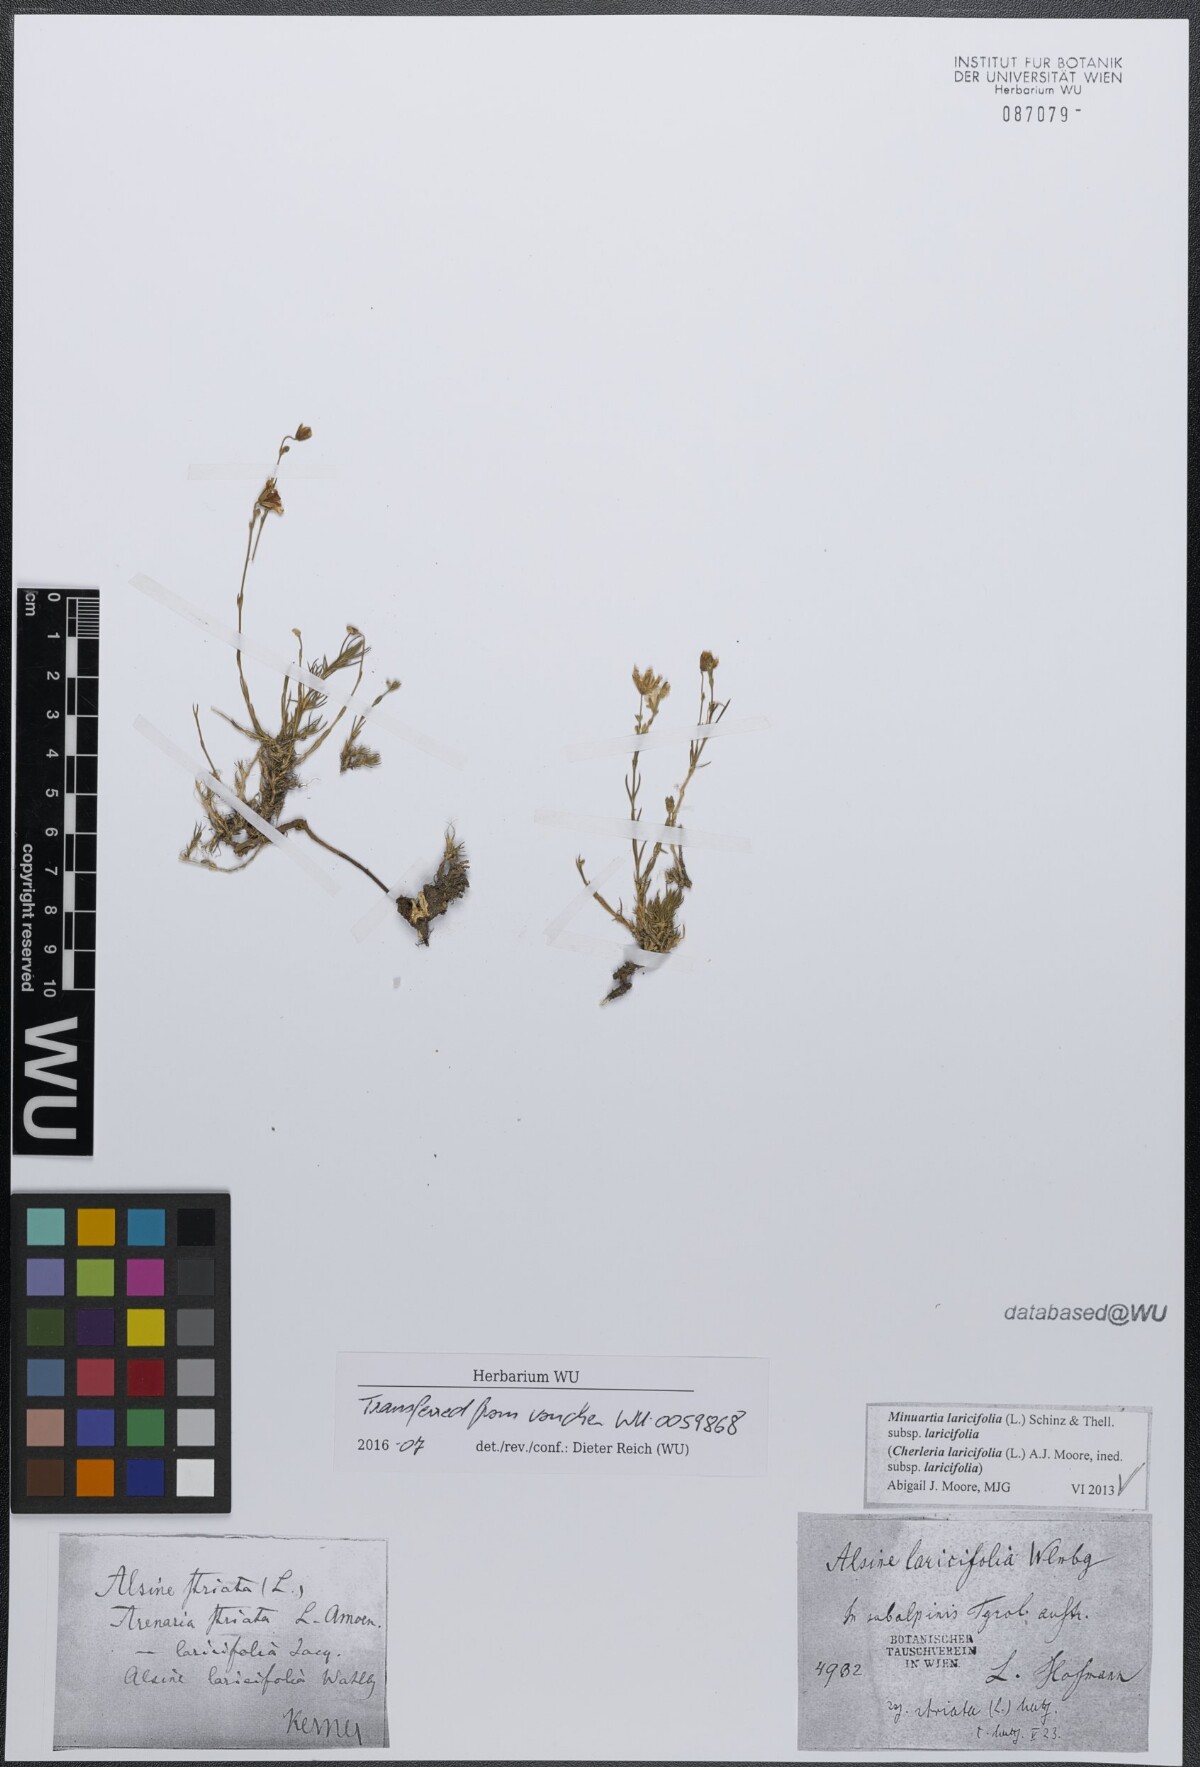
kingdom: Plantae
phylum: Tracheophyta
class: Magnoliopsida
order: Caryophyllales
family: Caryophyllaceae
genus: Cherleria
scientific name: Cherleria laricifolia
